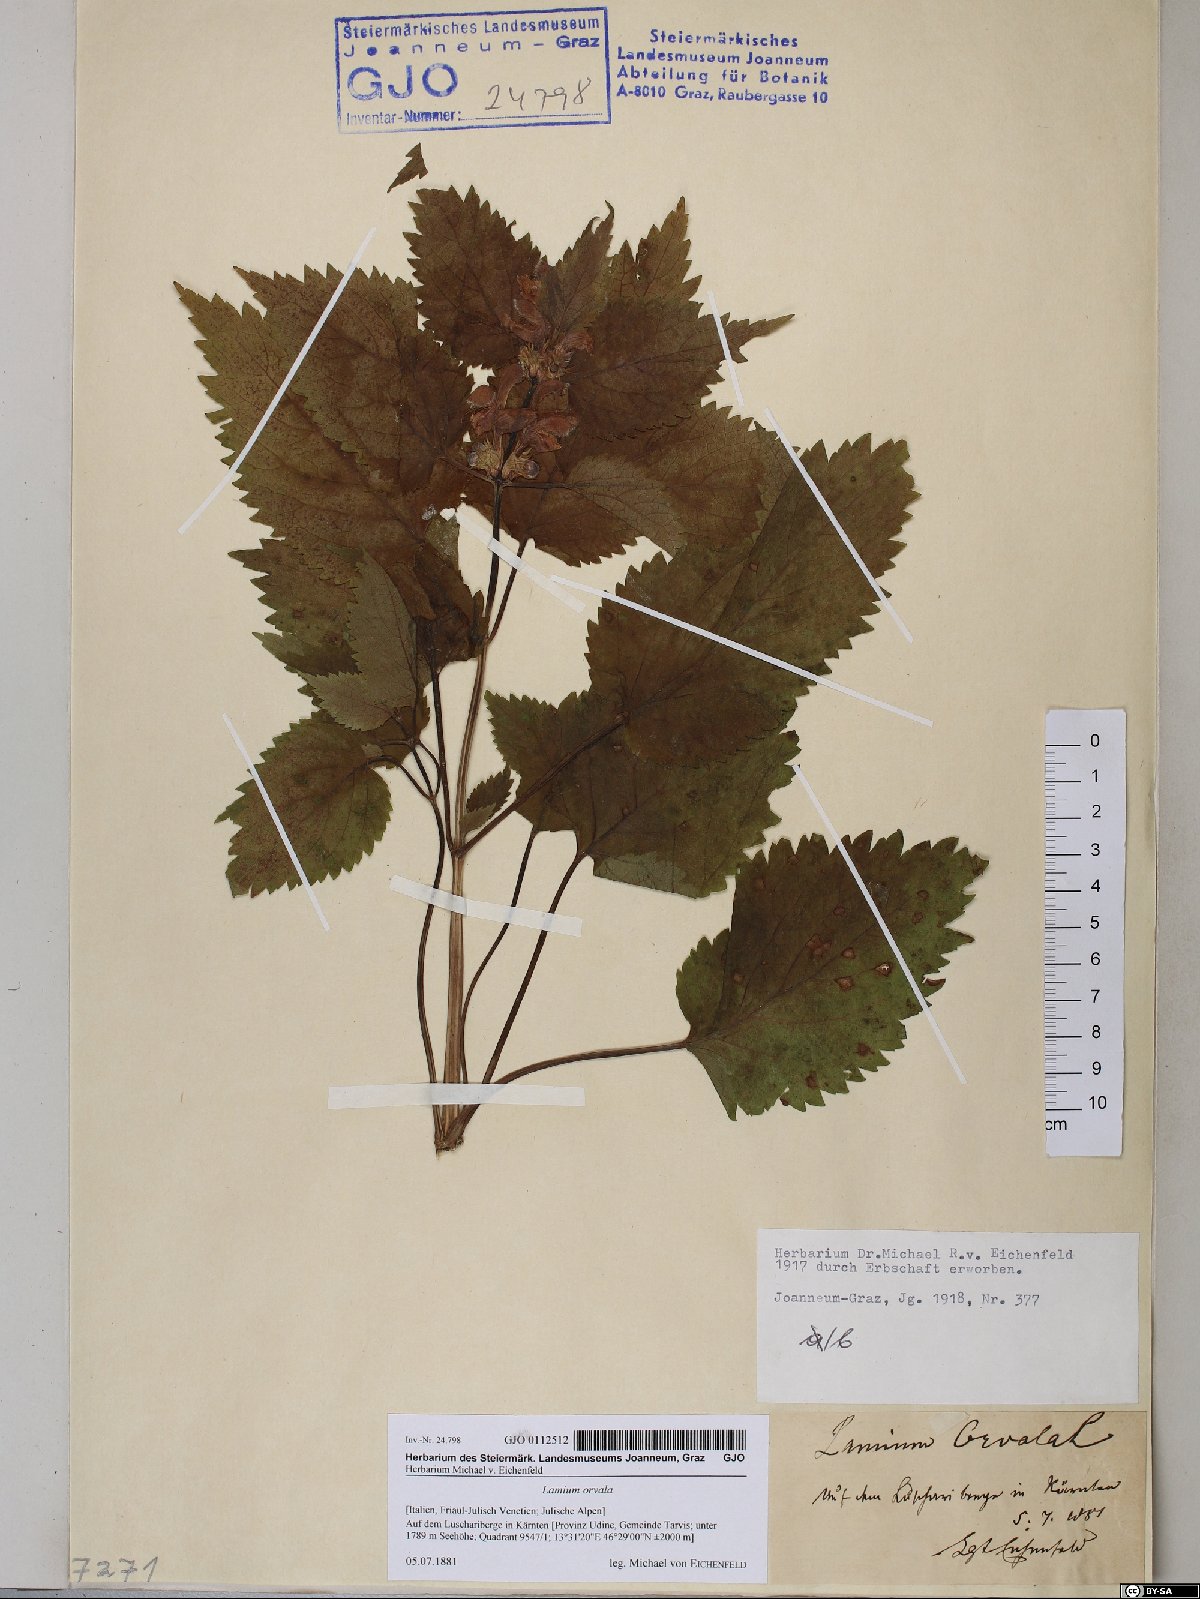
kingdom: Plantae
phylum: Tracheophyta
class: Magnoliopsida
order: Lamiales
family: Lamiaceae
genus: Lamium
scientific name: Lamium orvala
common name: Balm-leaved archangel
